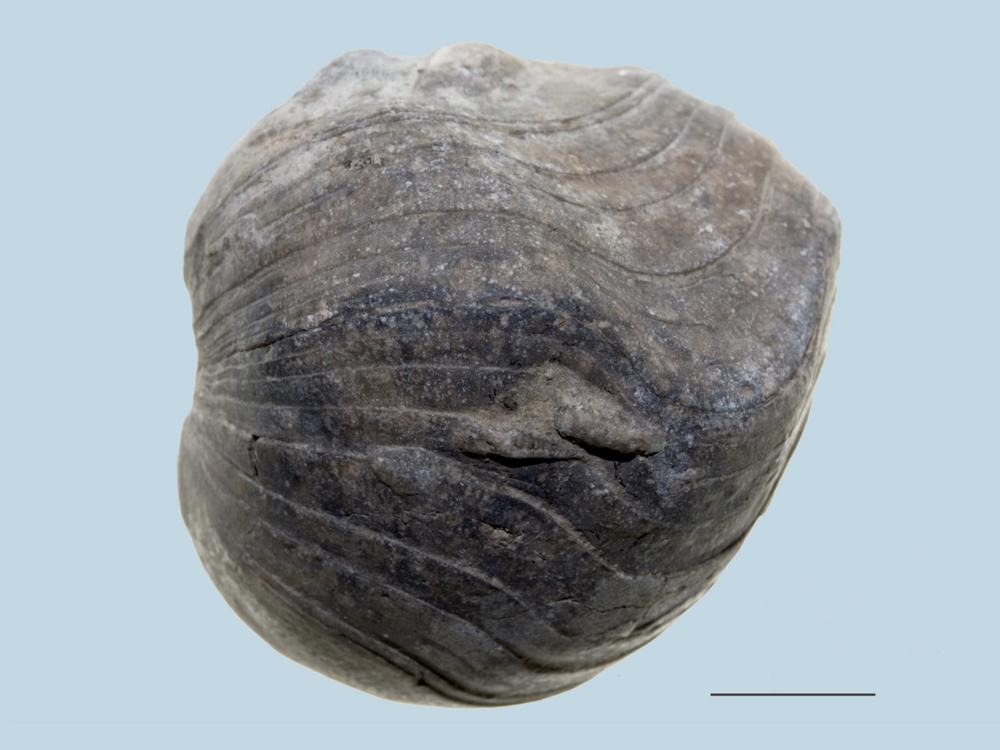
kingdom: Animalia
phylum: Brachiopoda
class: Rhynchonellata
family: Porambonitidae
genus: Porambonites
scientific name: Porambonites
